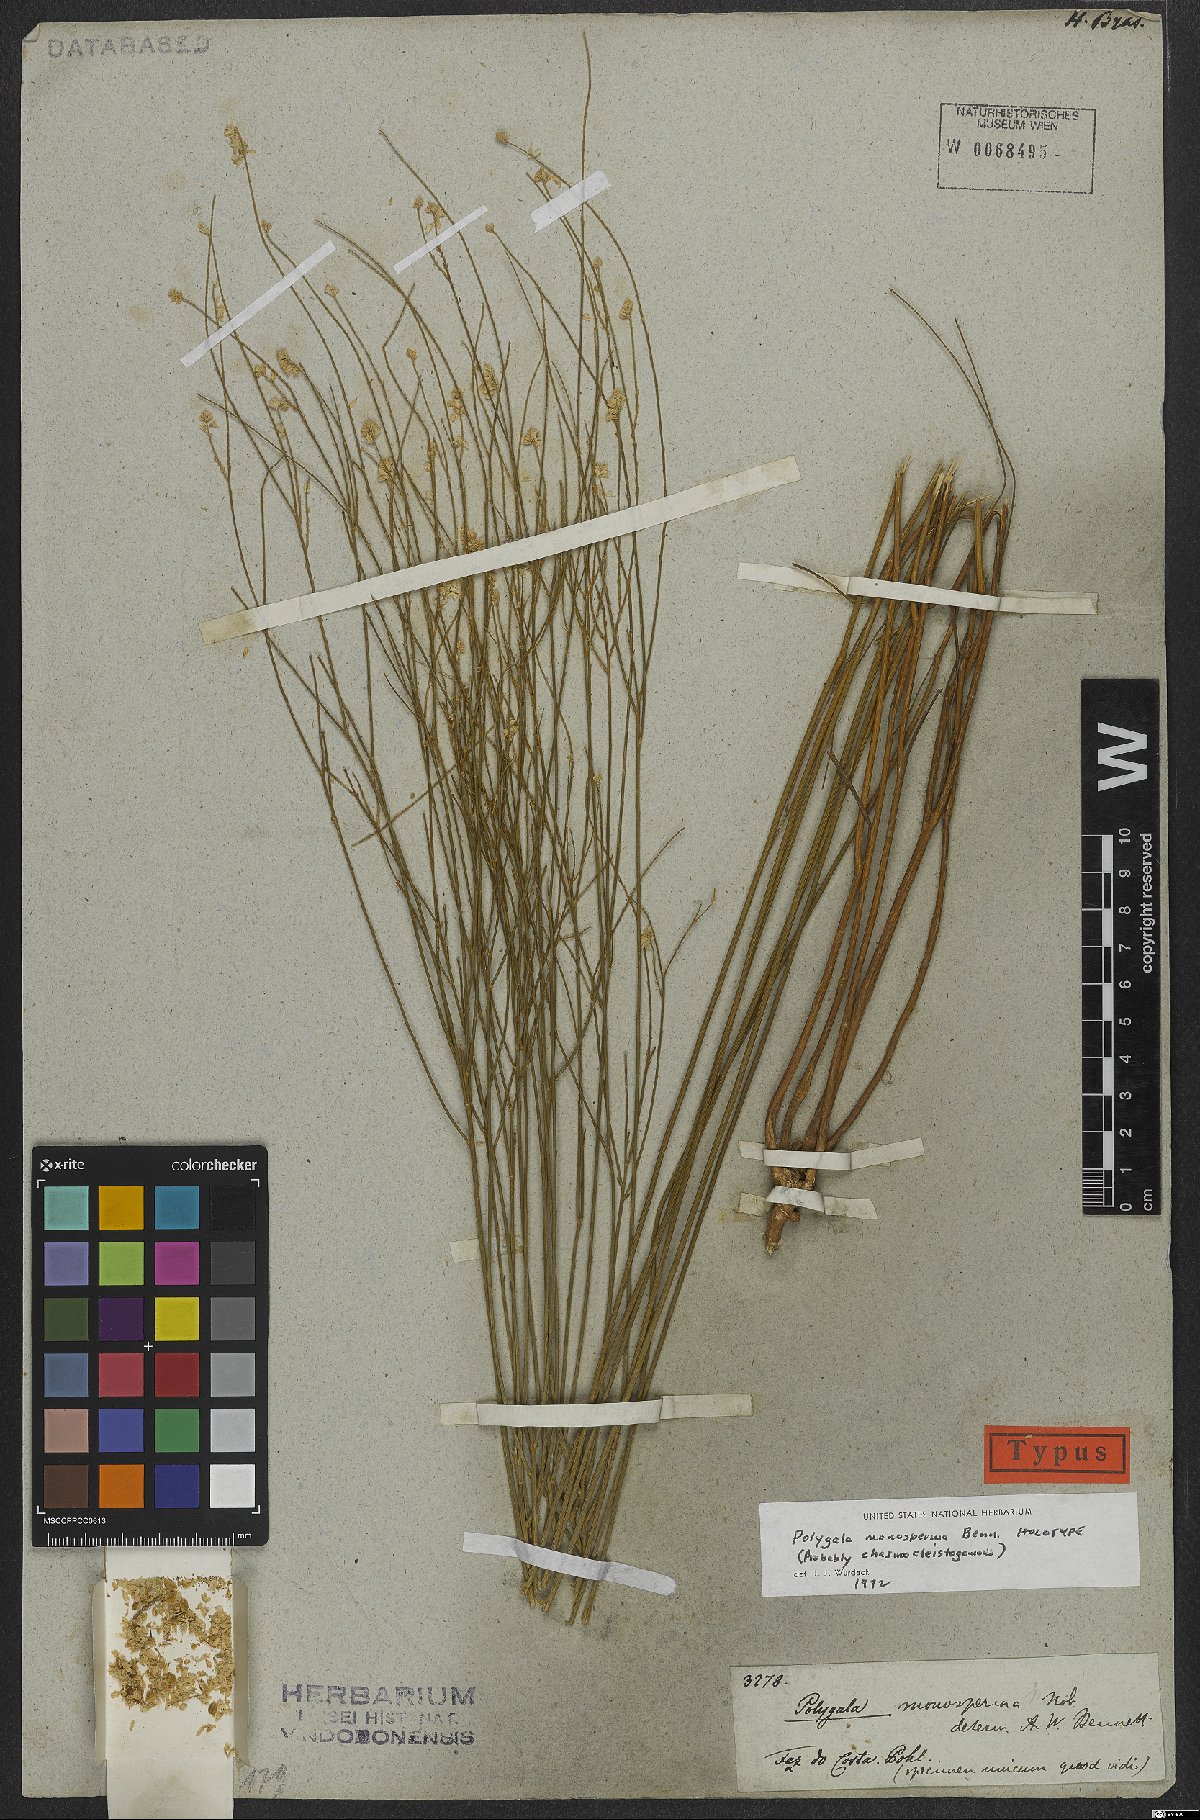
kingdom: Plantae
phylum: Tracheophyta
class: Magnoliopsida
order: Fabales
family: Polygalaceae
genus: Polygala
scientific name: Polygala monosperma
